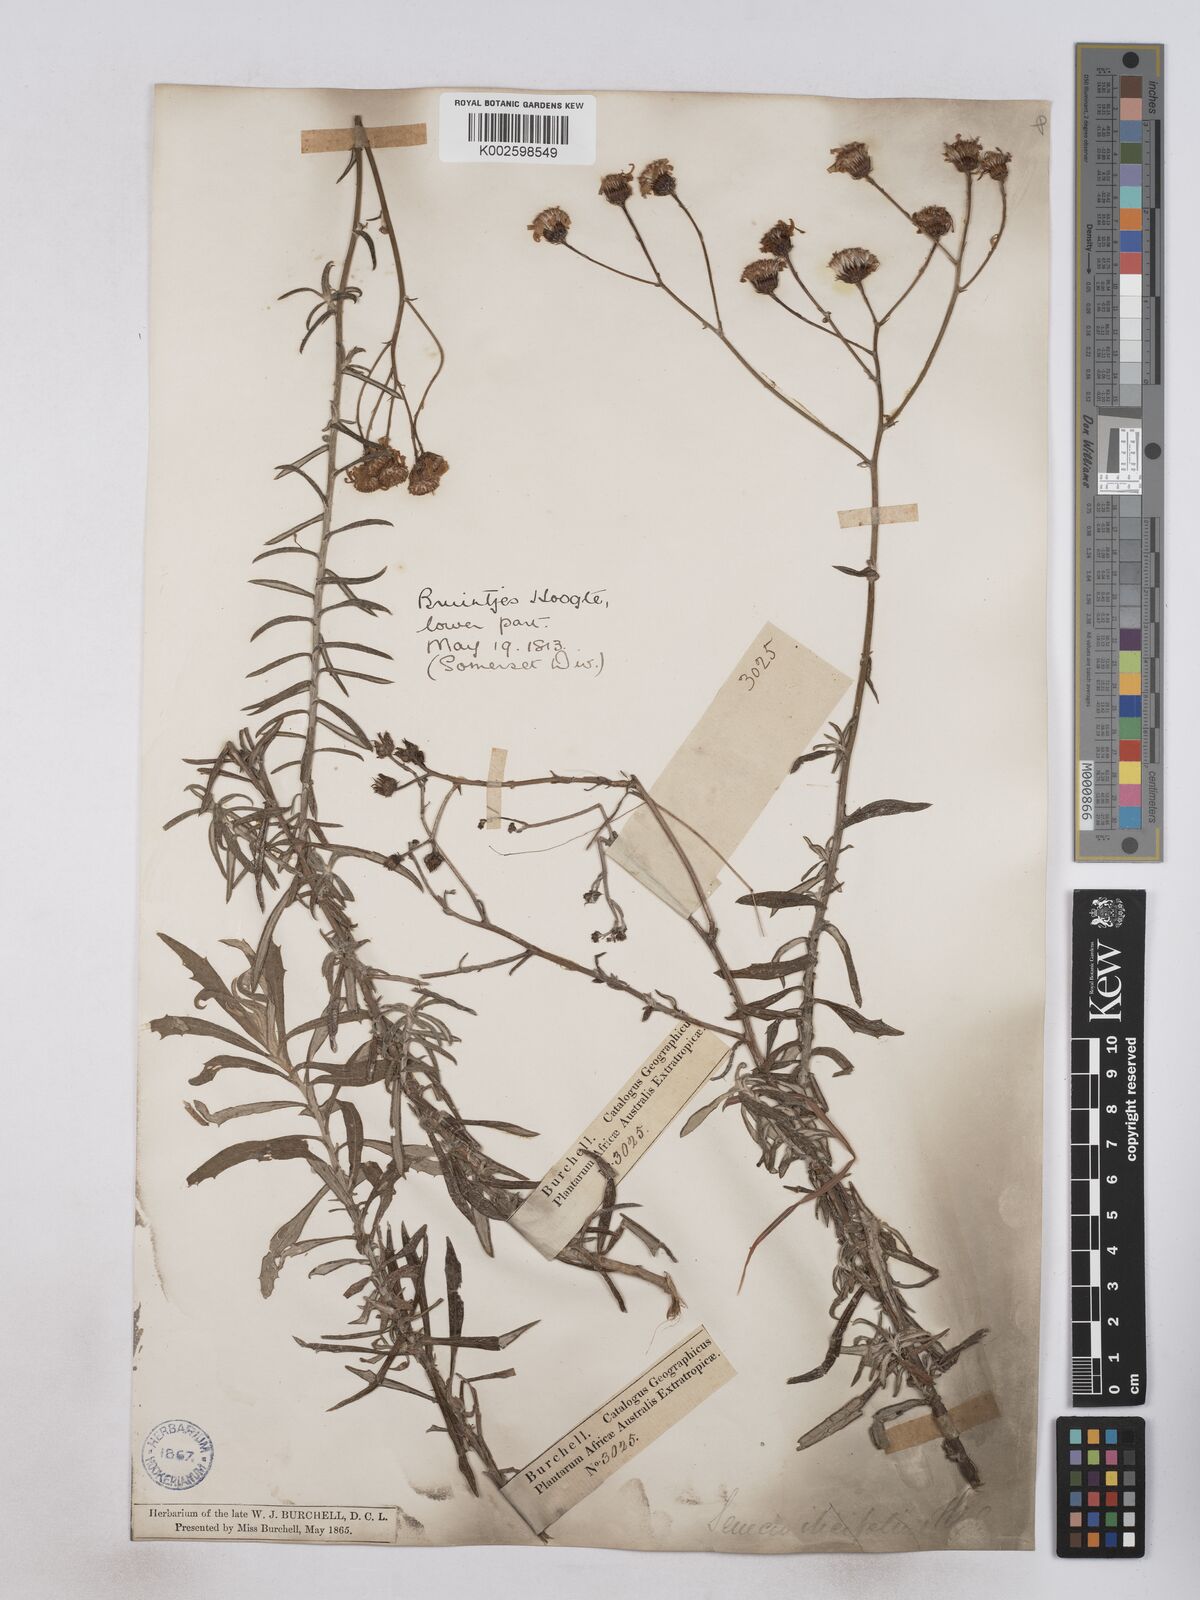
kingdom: Plantae
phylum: Tracheophyta
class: Magnoliopsida
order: Asterales
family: Asteraceae
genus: Senecio
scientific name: Senecio juniperinus
